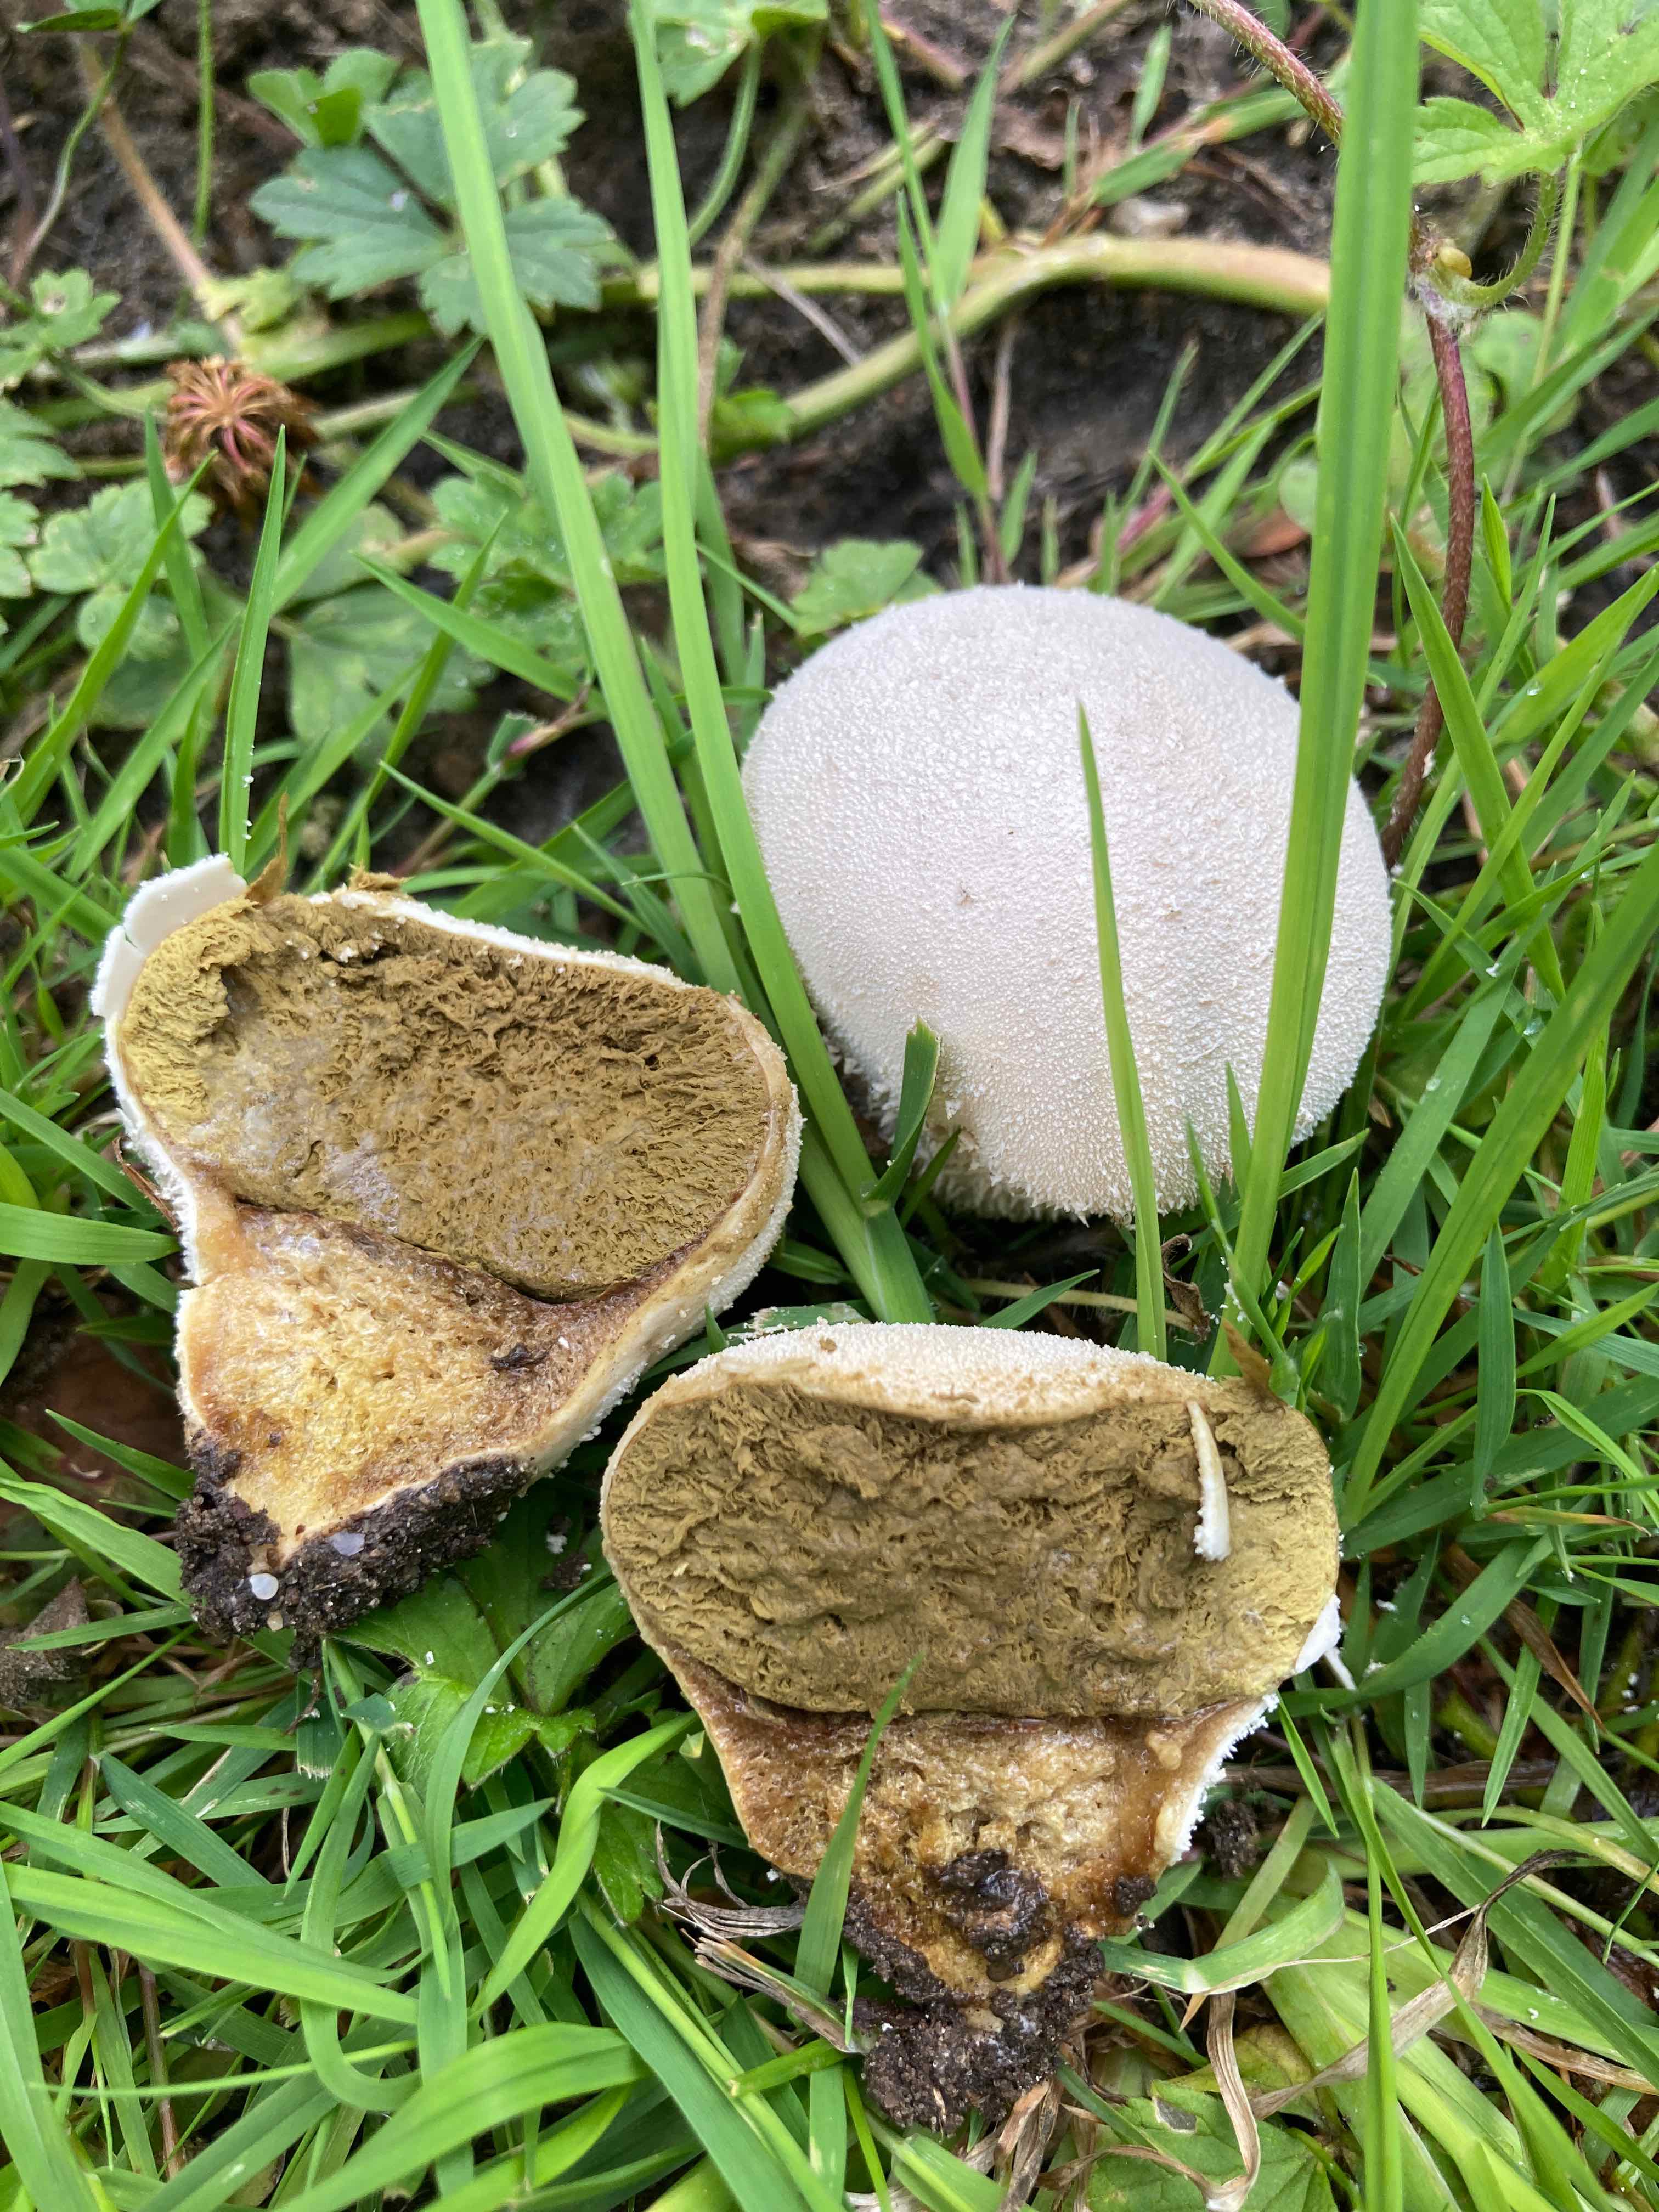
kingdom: Fungi
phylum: Basidiomycota
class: Agaricomycetes
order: Agaricales
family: Lycoperdaceae
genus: Lycoperdon
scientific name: Lycoperdon pratense
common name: flad støvbold
